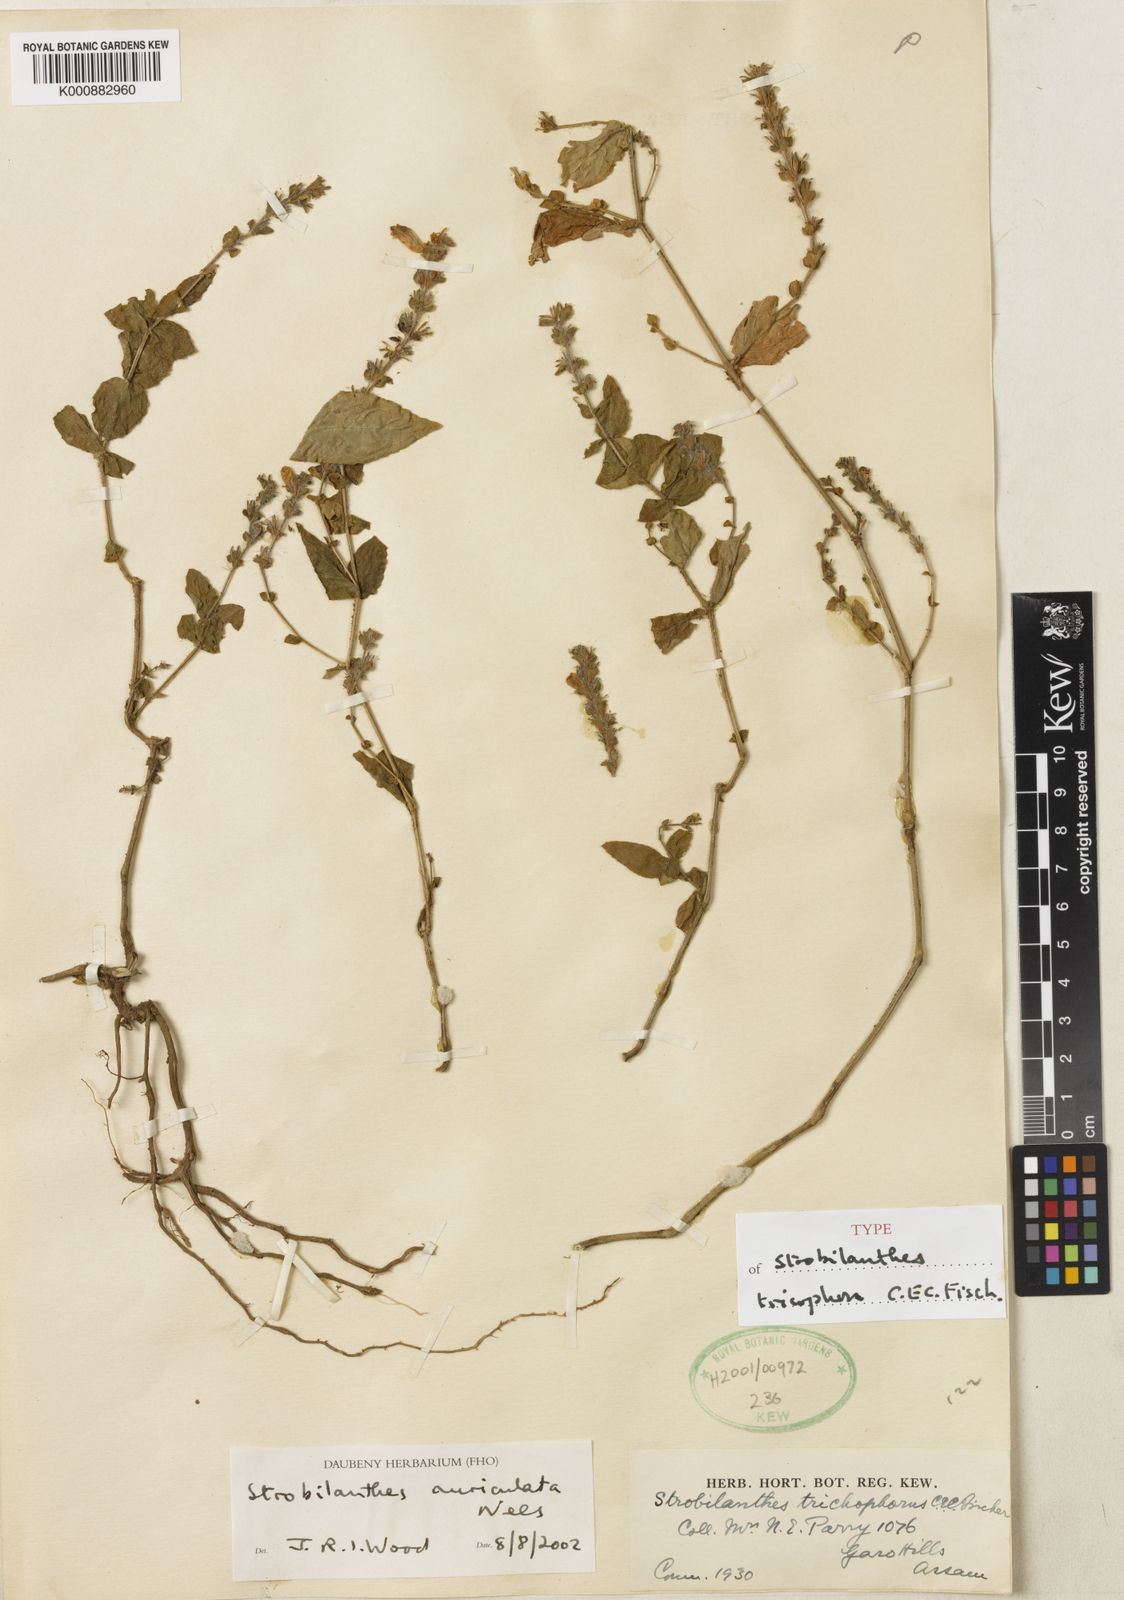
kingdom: Plantae
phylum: Tracheophyta
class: Magnoliopsida
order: Lamiales
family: Acanthaceae
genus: Strobilanthes
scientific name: Strobilanthes auriculata
